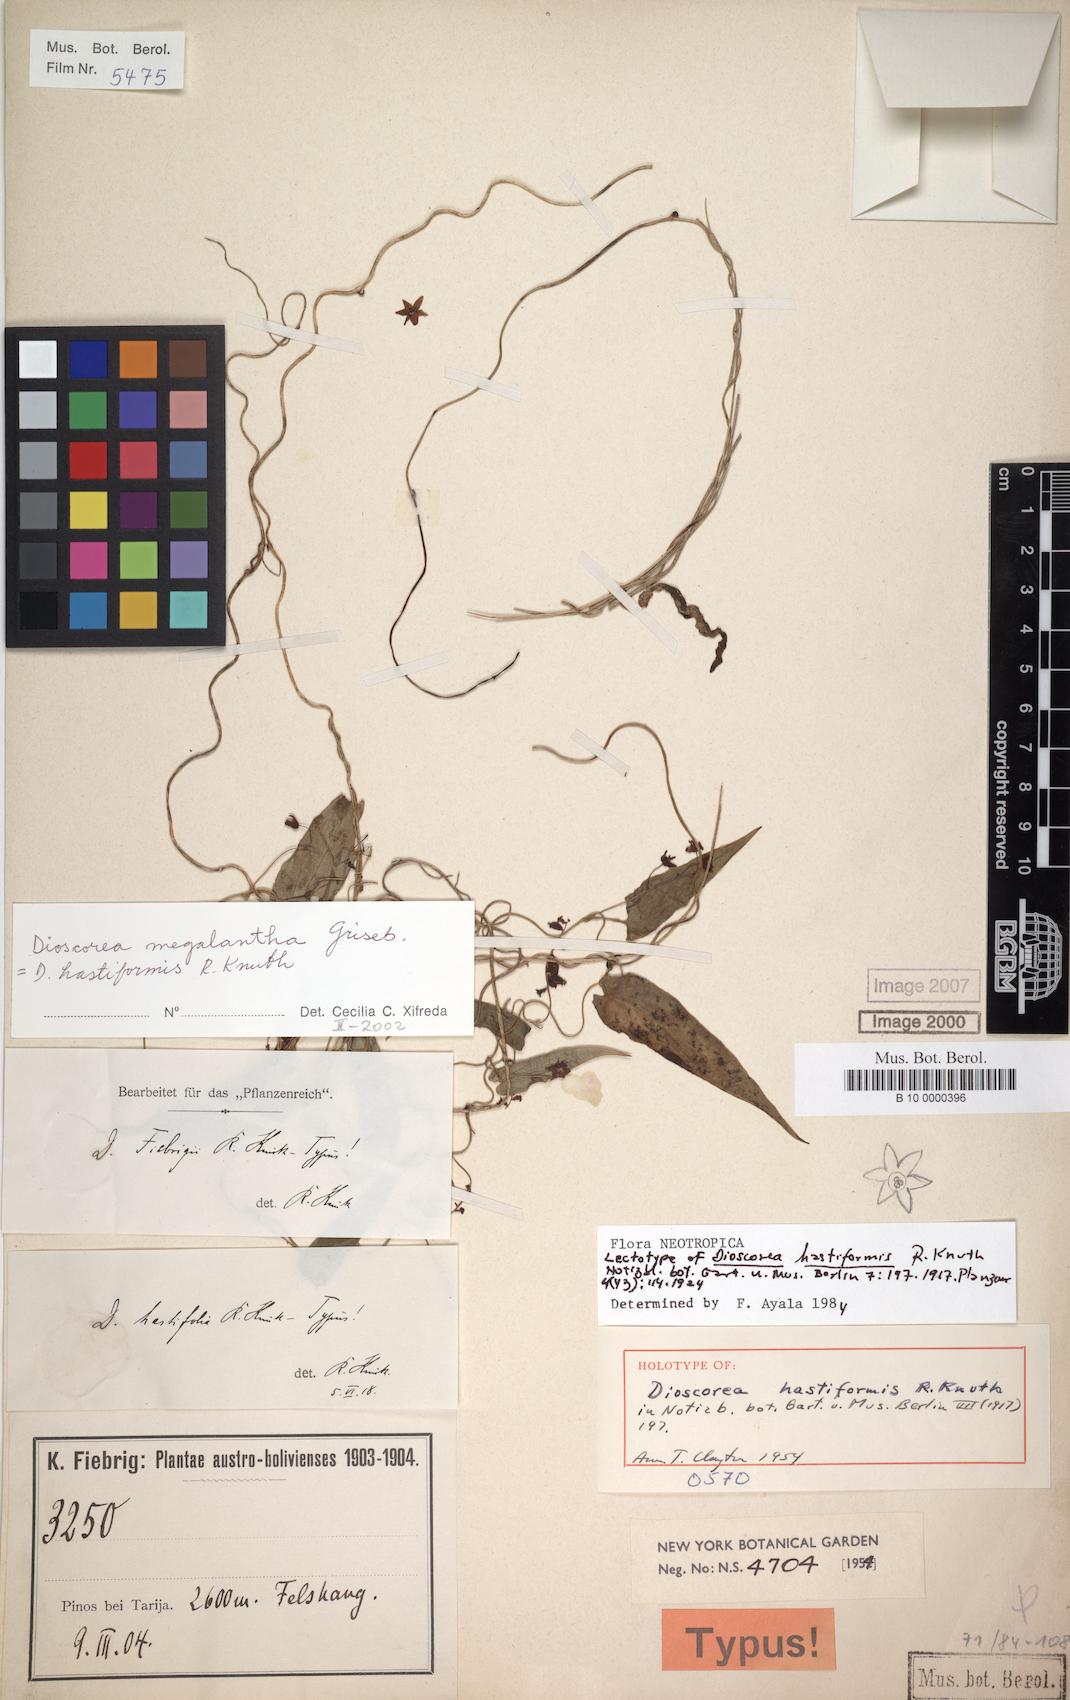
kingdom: Plantae
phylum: Tracheophyta
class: Liliopsida
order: Dioscoreales
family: Dioscoreaceae
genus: Dioscorea
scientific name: Dioscorea hastiformis
